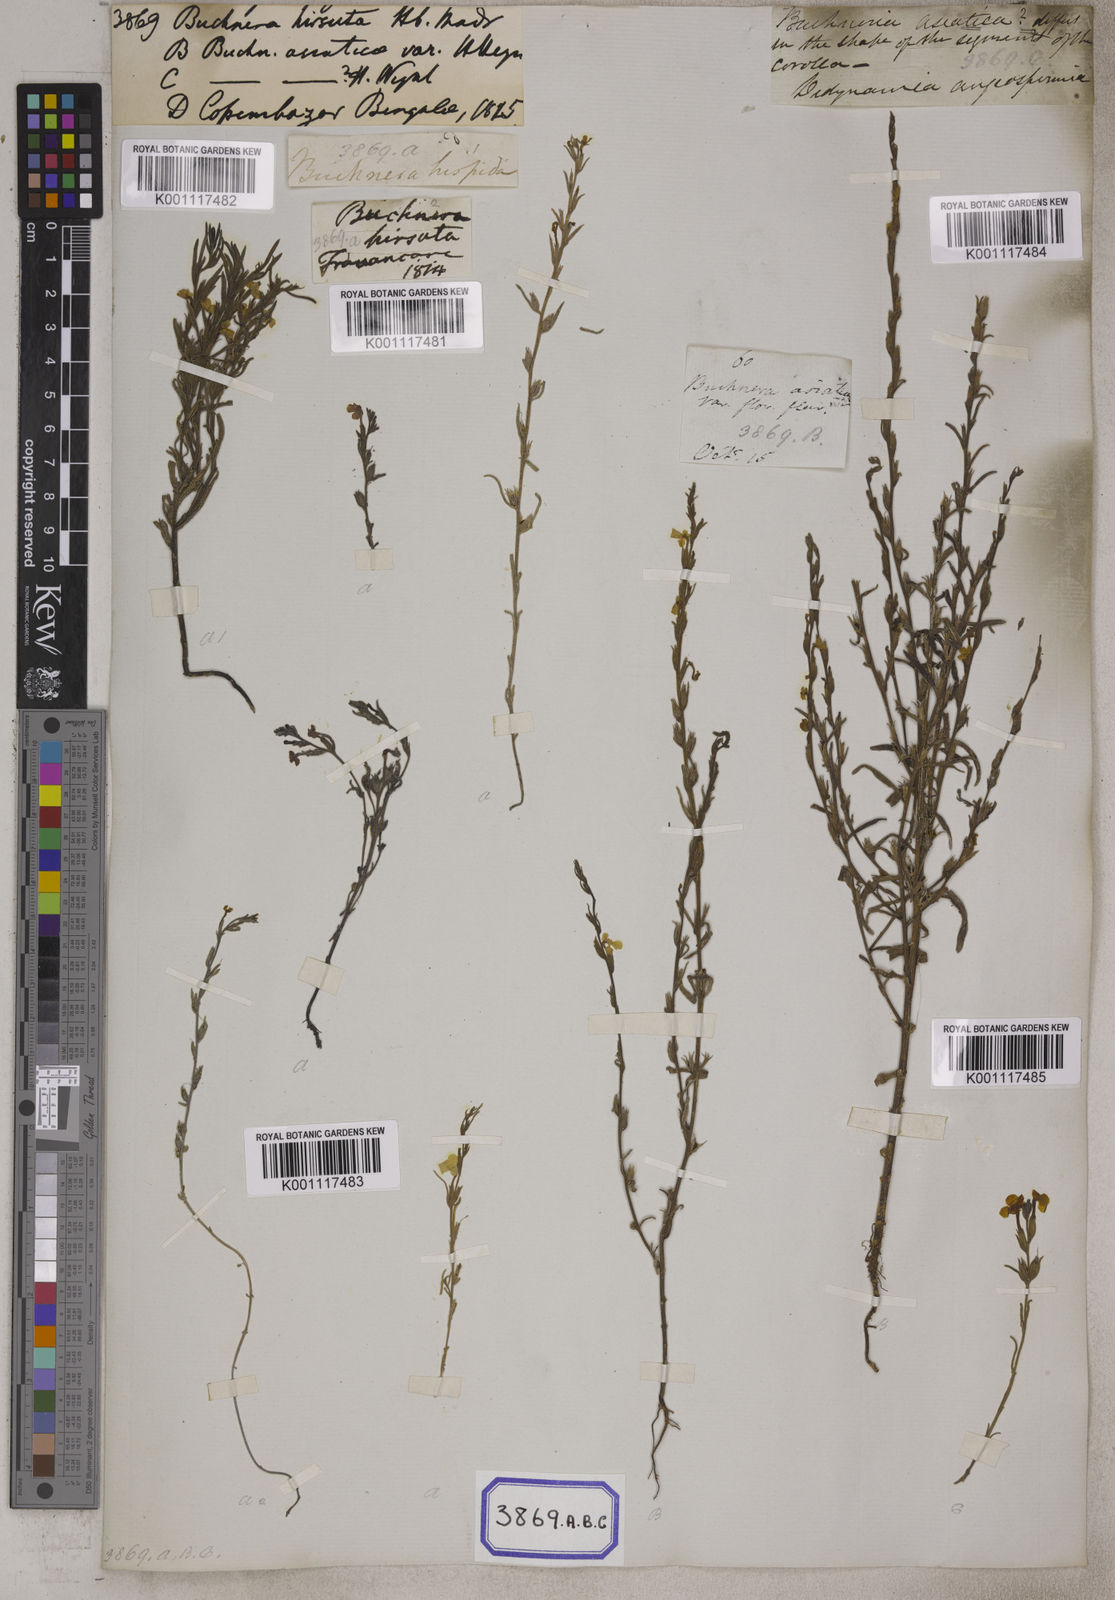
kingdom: Plantae
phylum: Tracheophyta
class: Magnoliopsida
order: Lamiales
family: Orobanchaceae
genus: Buchnera
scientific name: Buchnera
